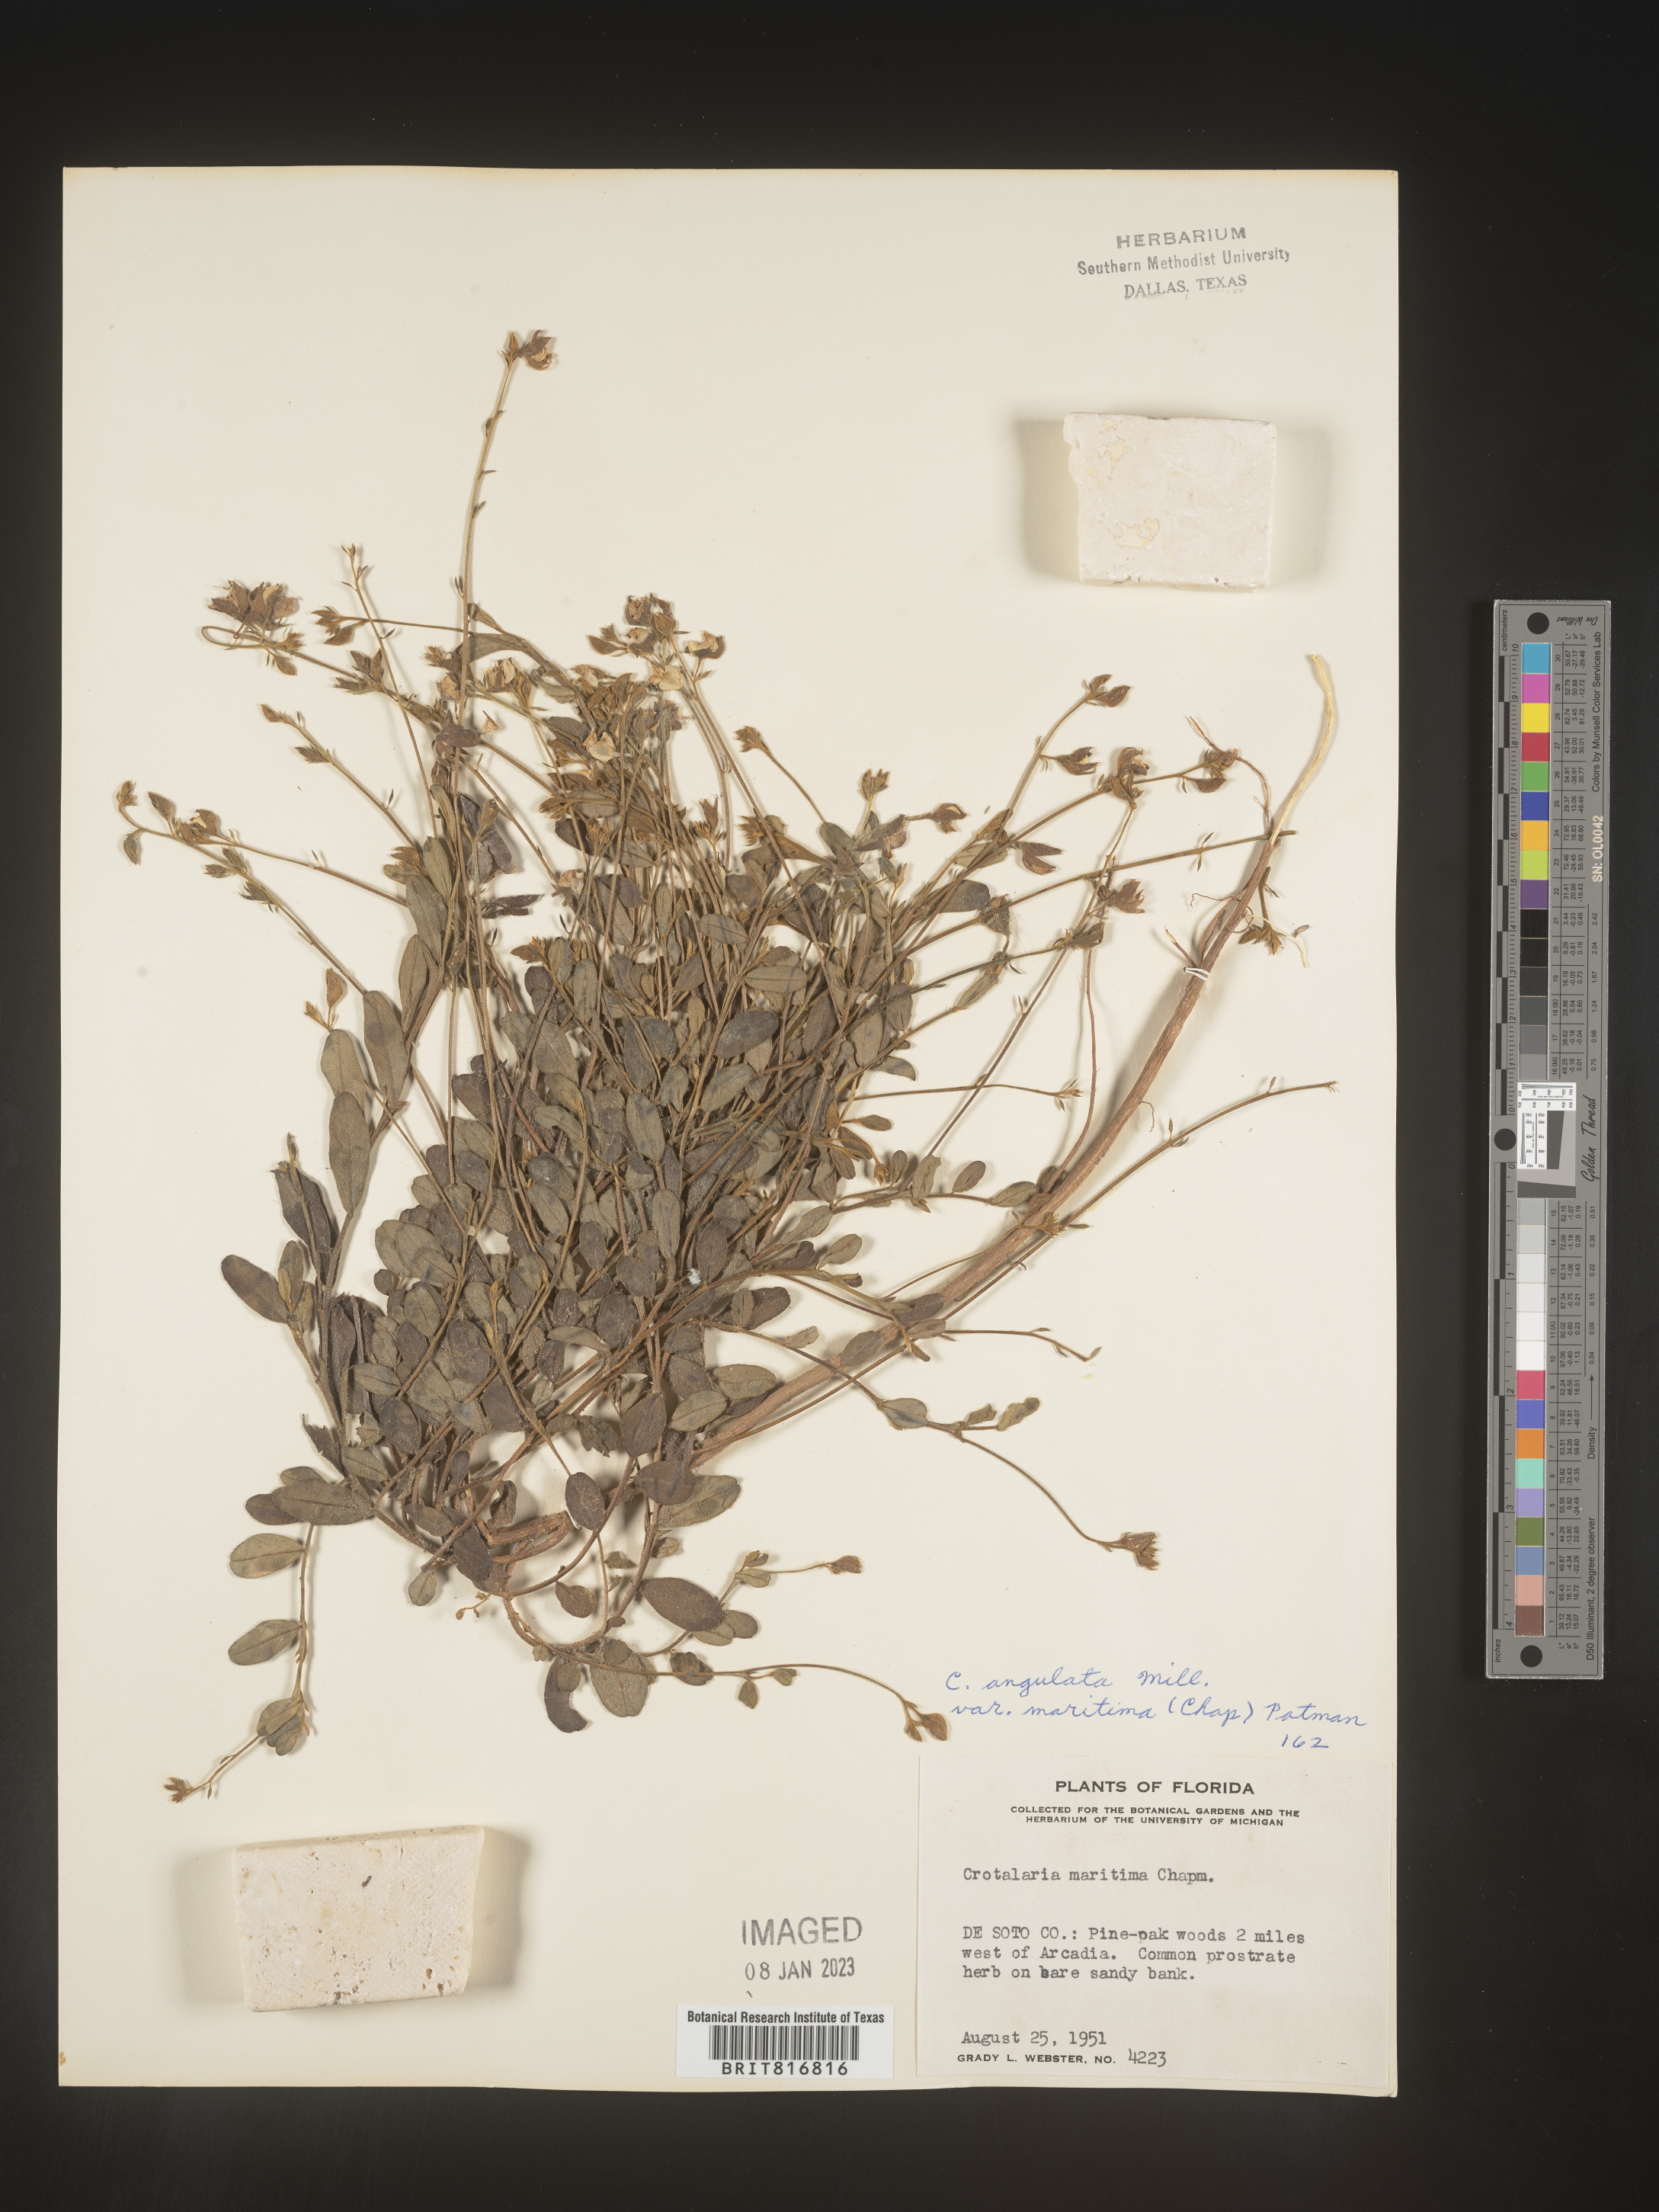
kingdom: Plantae
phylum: Tracheophyta
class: Magnoliopsida
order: Fabales
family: Fabaceae
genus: Crotalaria
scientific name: Crotalaria rotundifolia
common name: Prostrate rattlebox
